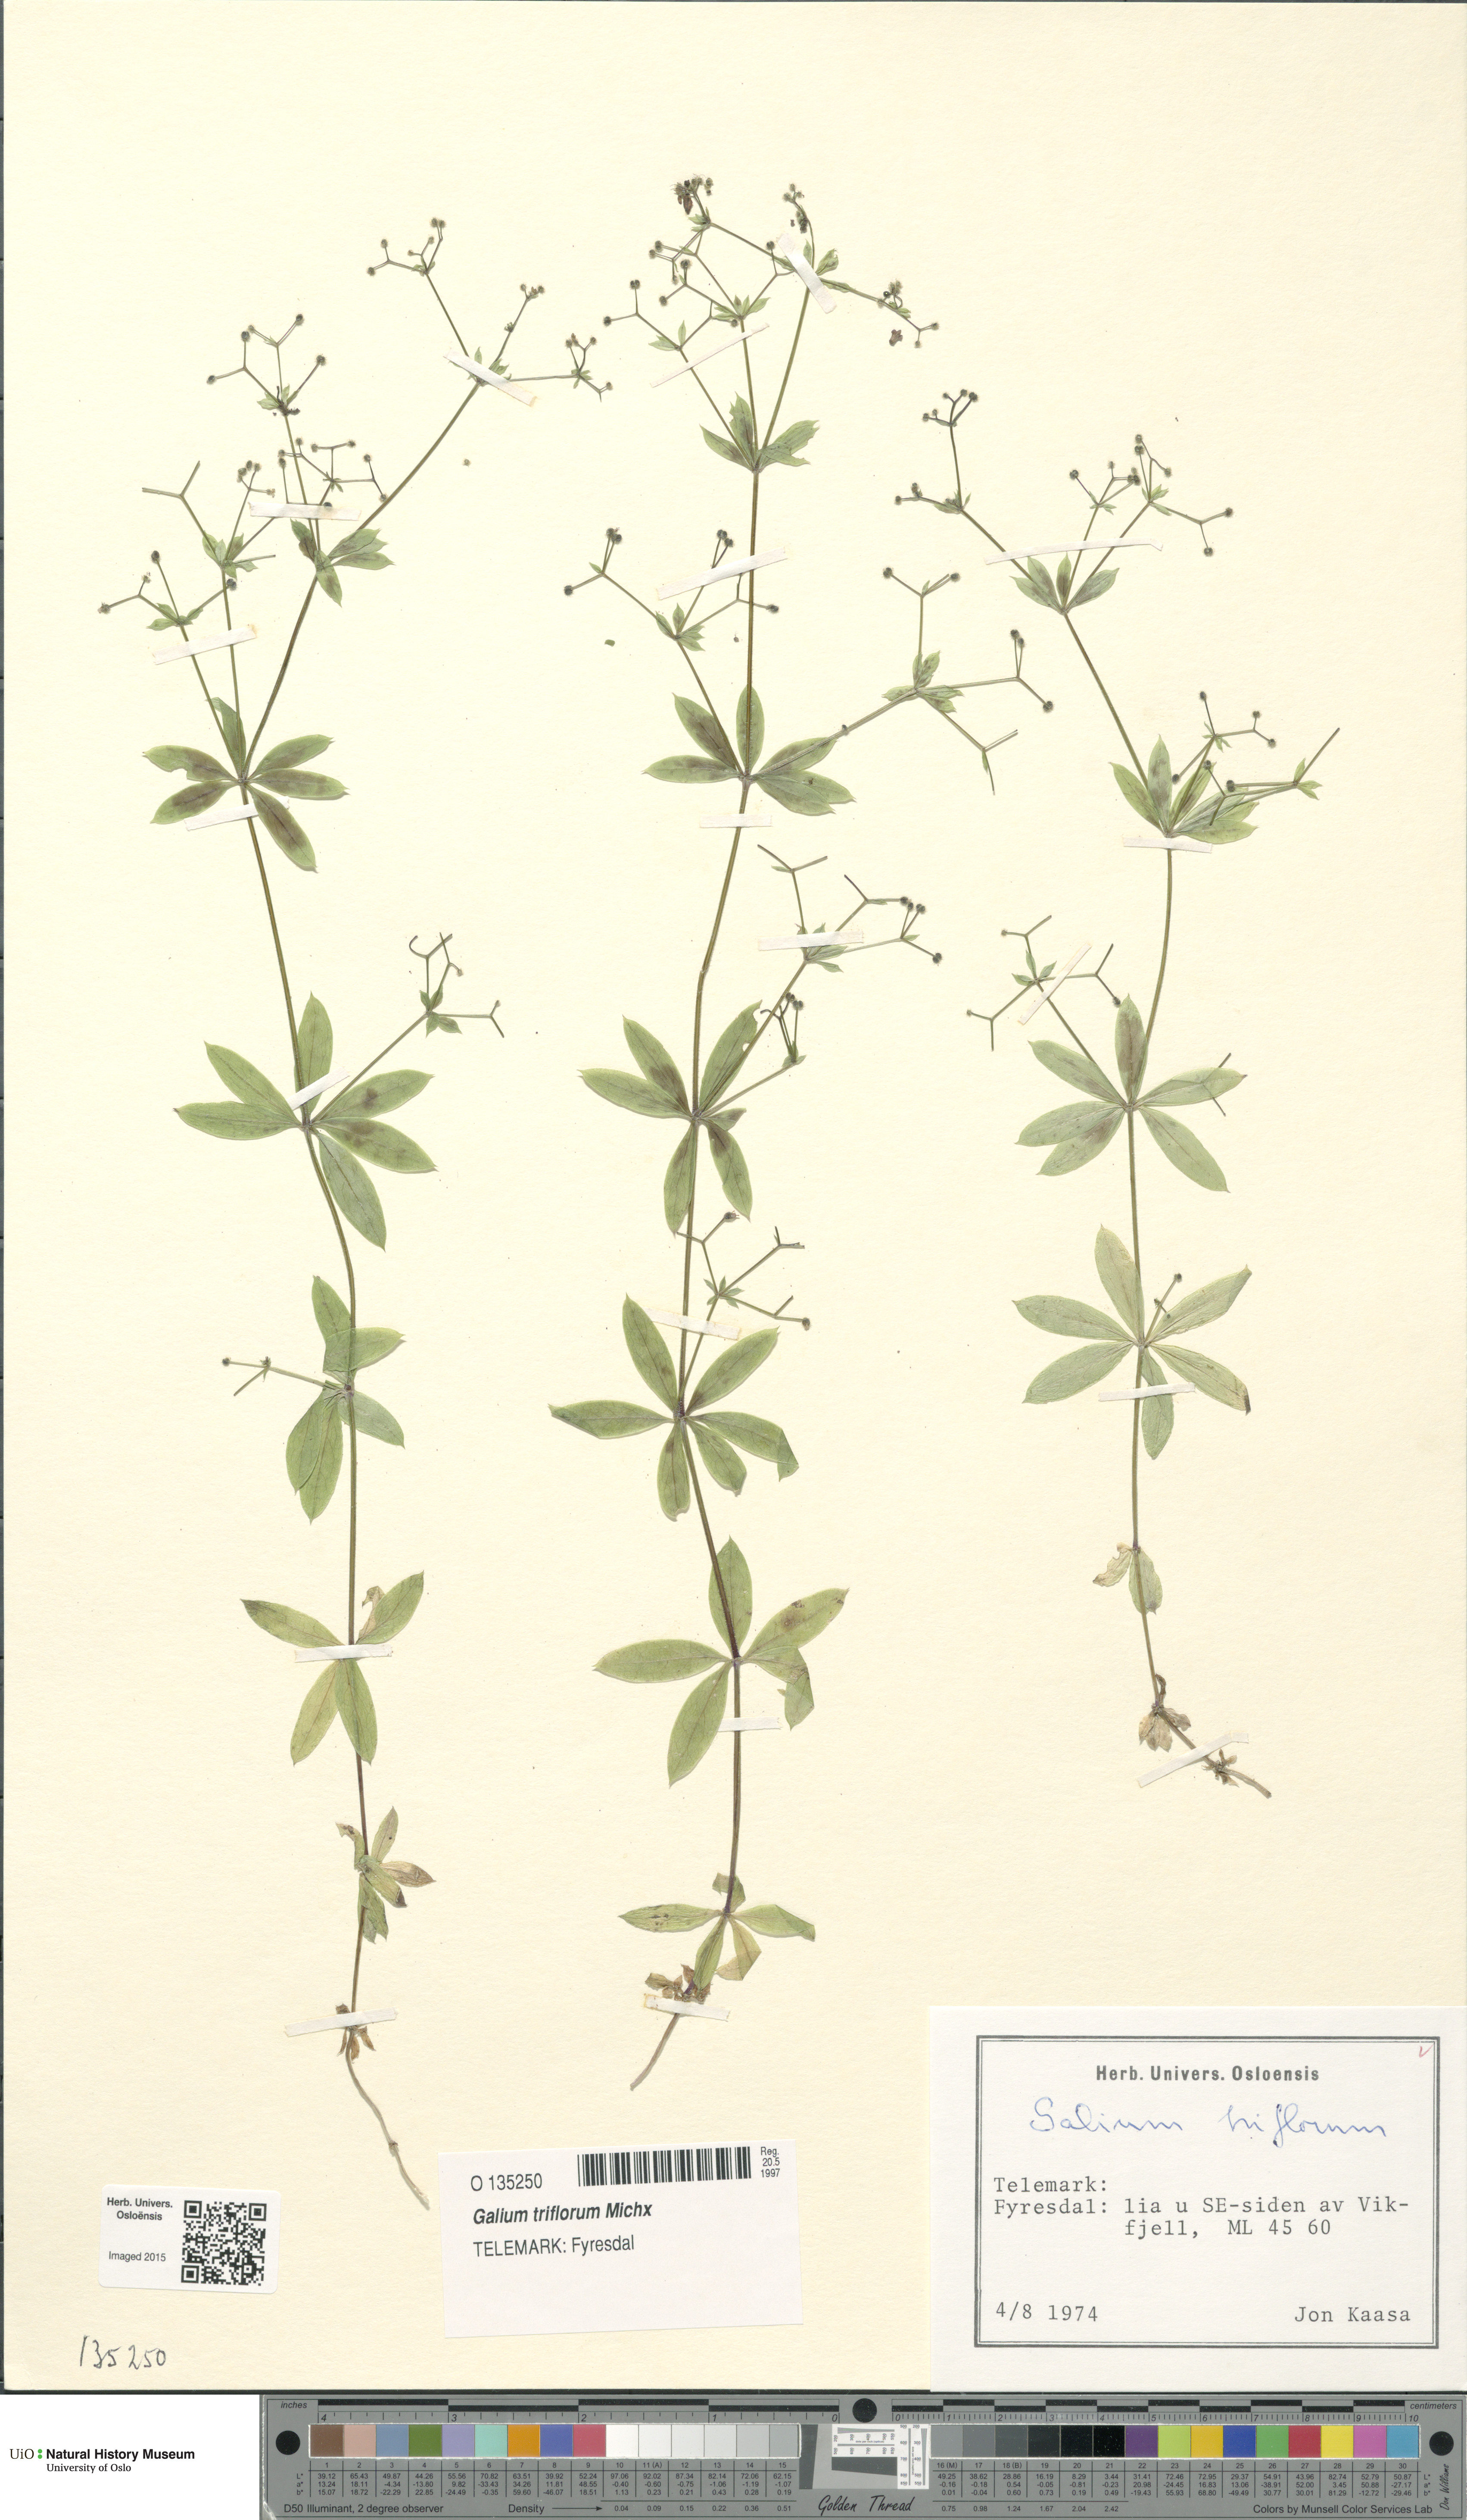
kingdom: Plantae
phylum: Tracheophyta
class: Magnoliopsida
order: Gentianales
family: Rubiaceae
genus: Galium
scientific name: Galium triflorum
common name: Fragrant bedstraw
